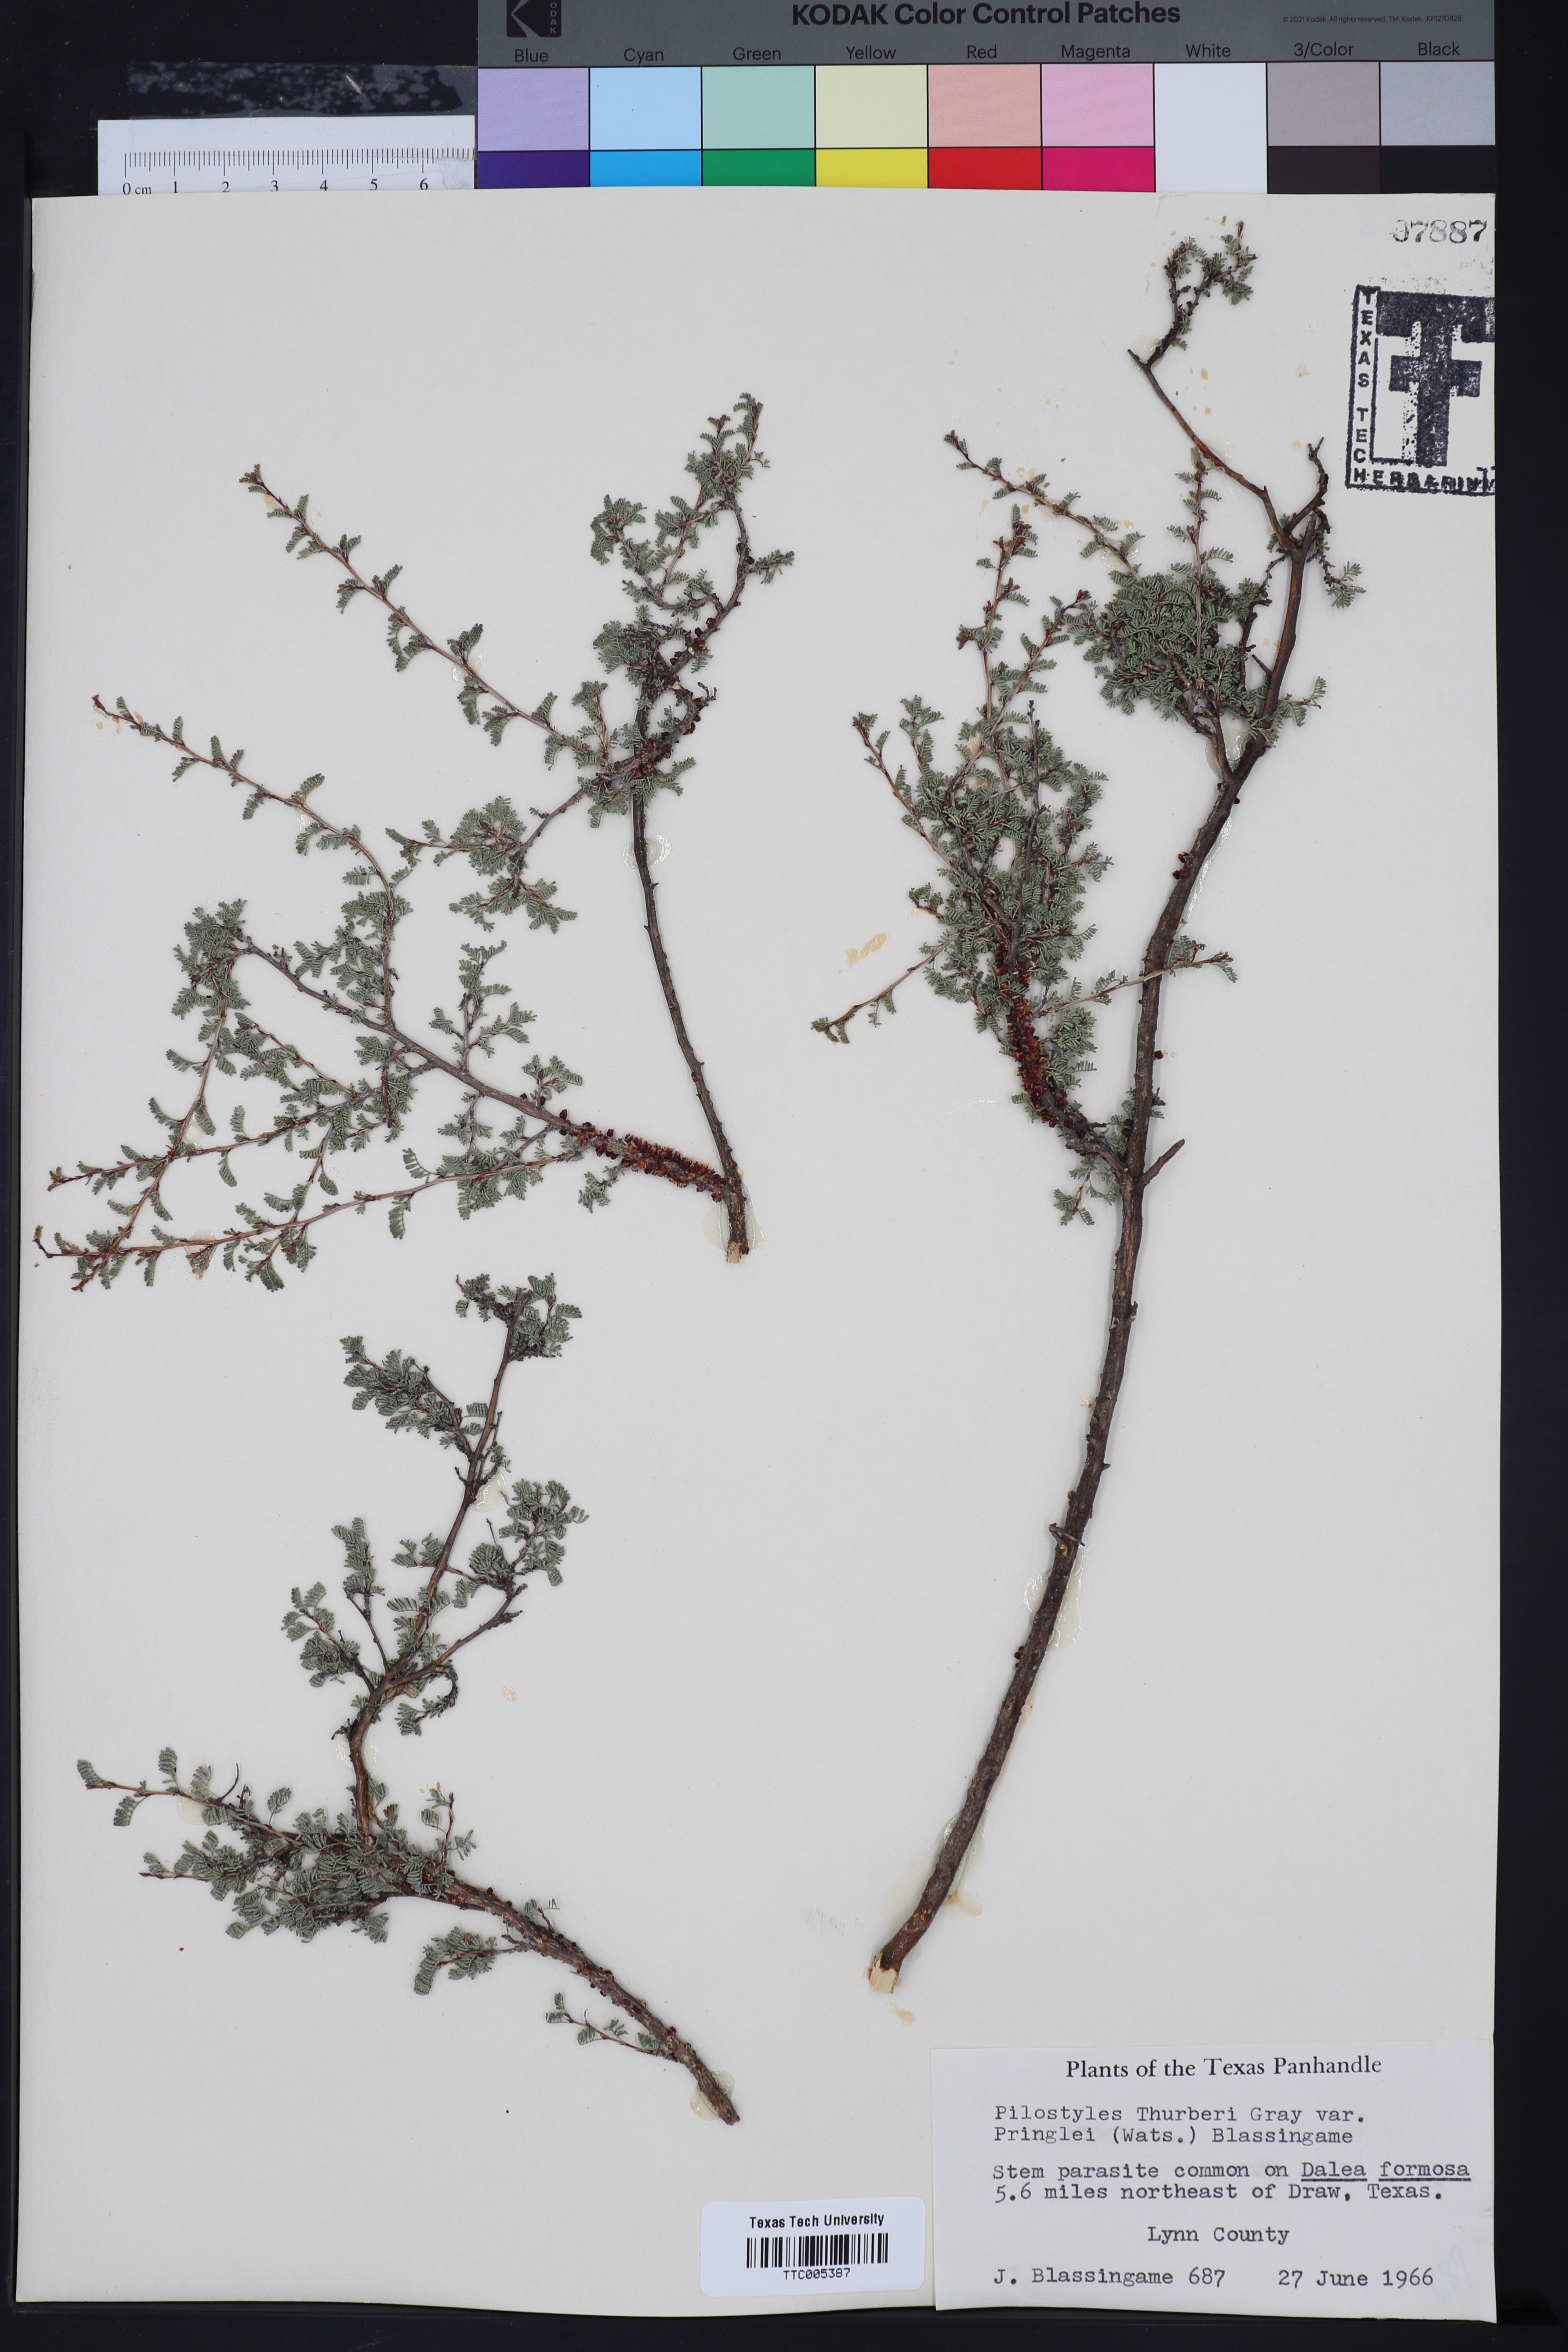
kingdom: Plantae
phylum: Tracheophyta
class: Magnoliopsida
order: Cucurbitales
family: Apodanthaceae
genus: Pilostyles
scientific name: Pilostyles thurberi
